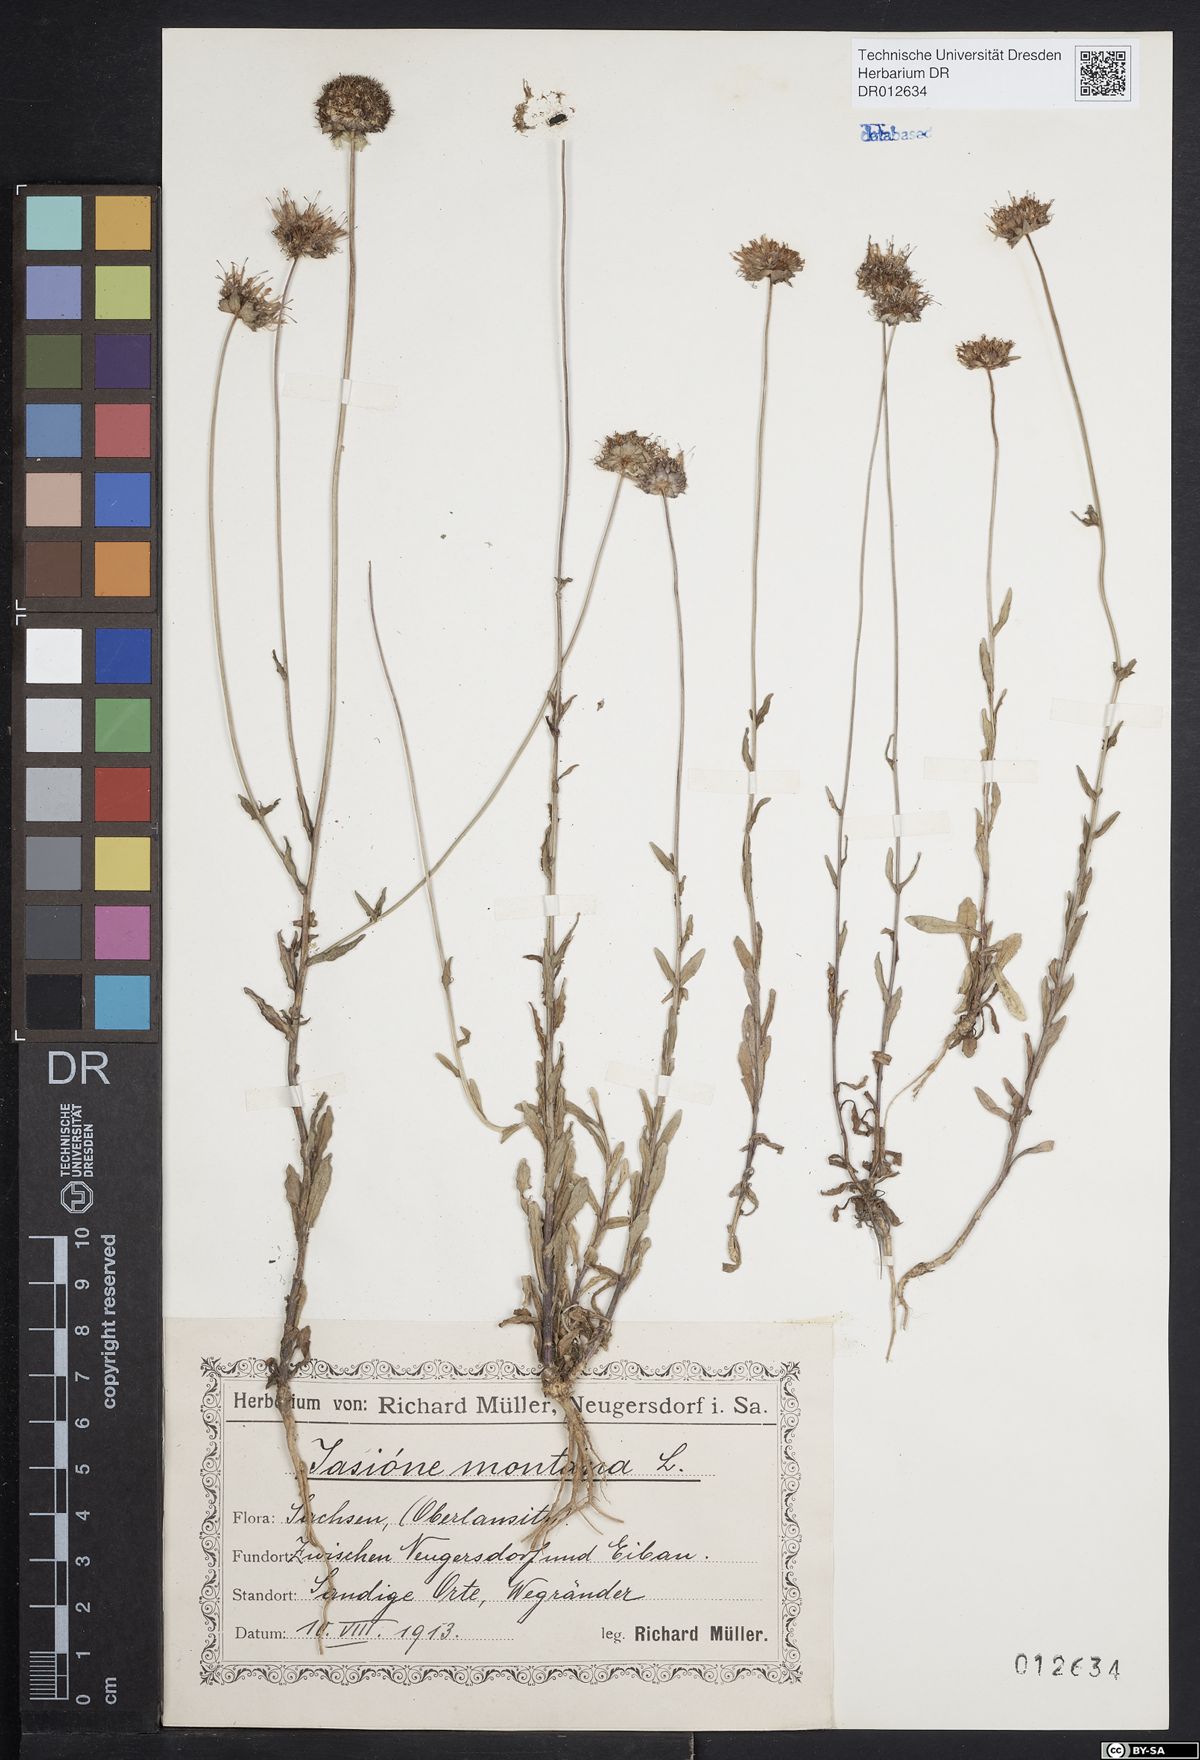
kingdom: Plantae
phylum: Tracheophyta
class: Magnoliopsida
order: Asterales
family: Campanulaceae
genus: Jasione
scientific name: Jasione montana
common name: Sheep's-bit
